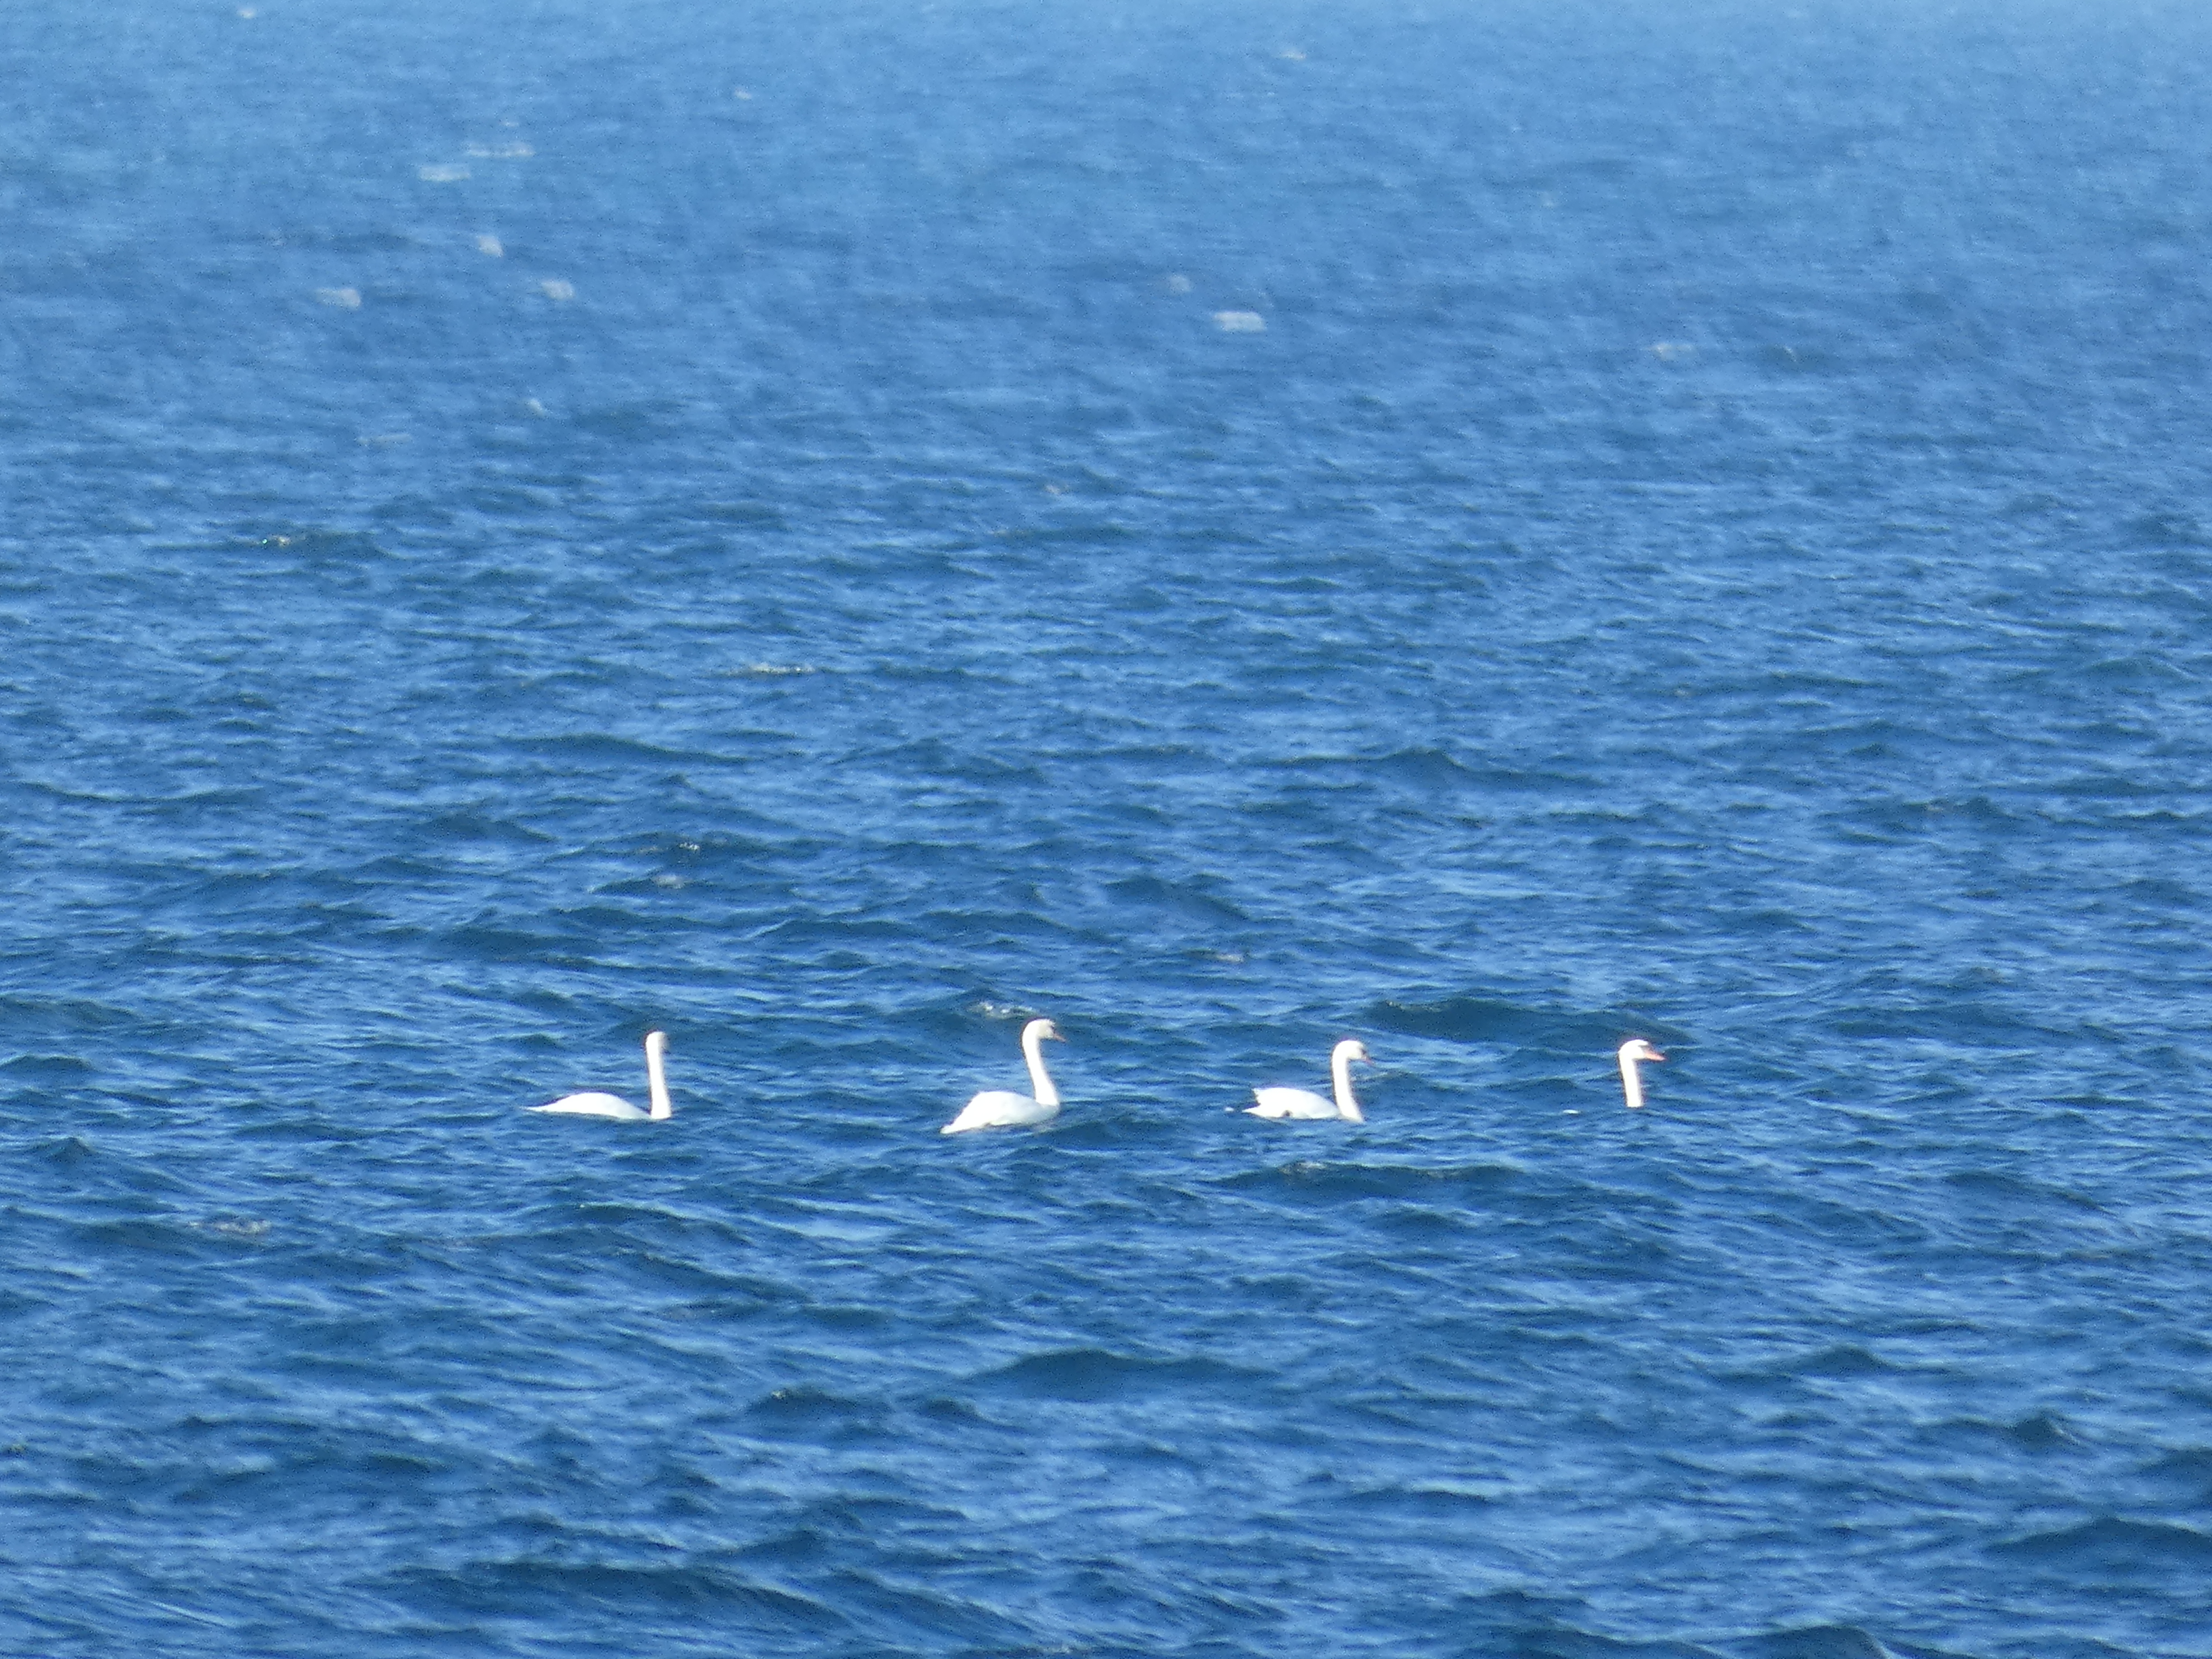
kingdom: Animalia
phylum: Chordata
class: Aves
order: Anseriformes
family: Anatidae
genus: Cygnus
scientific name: Cygnus olor
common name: Knopsvane
